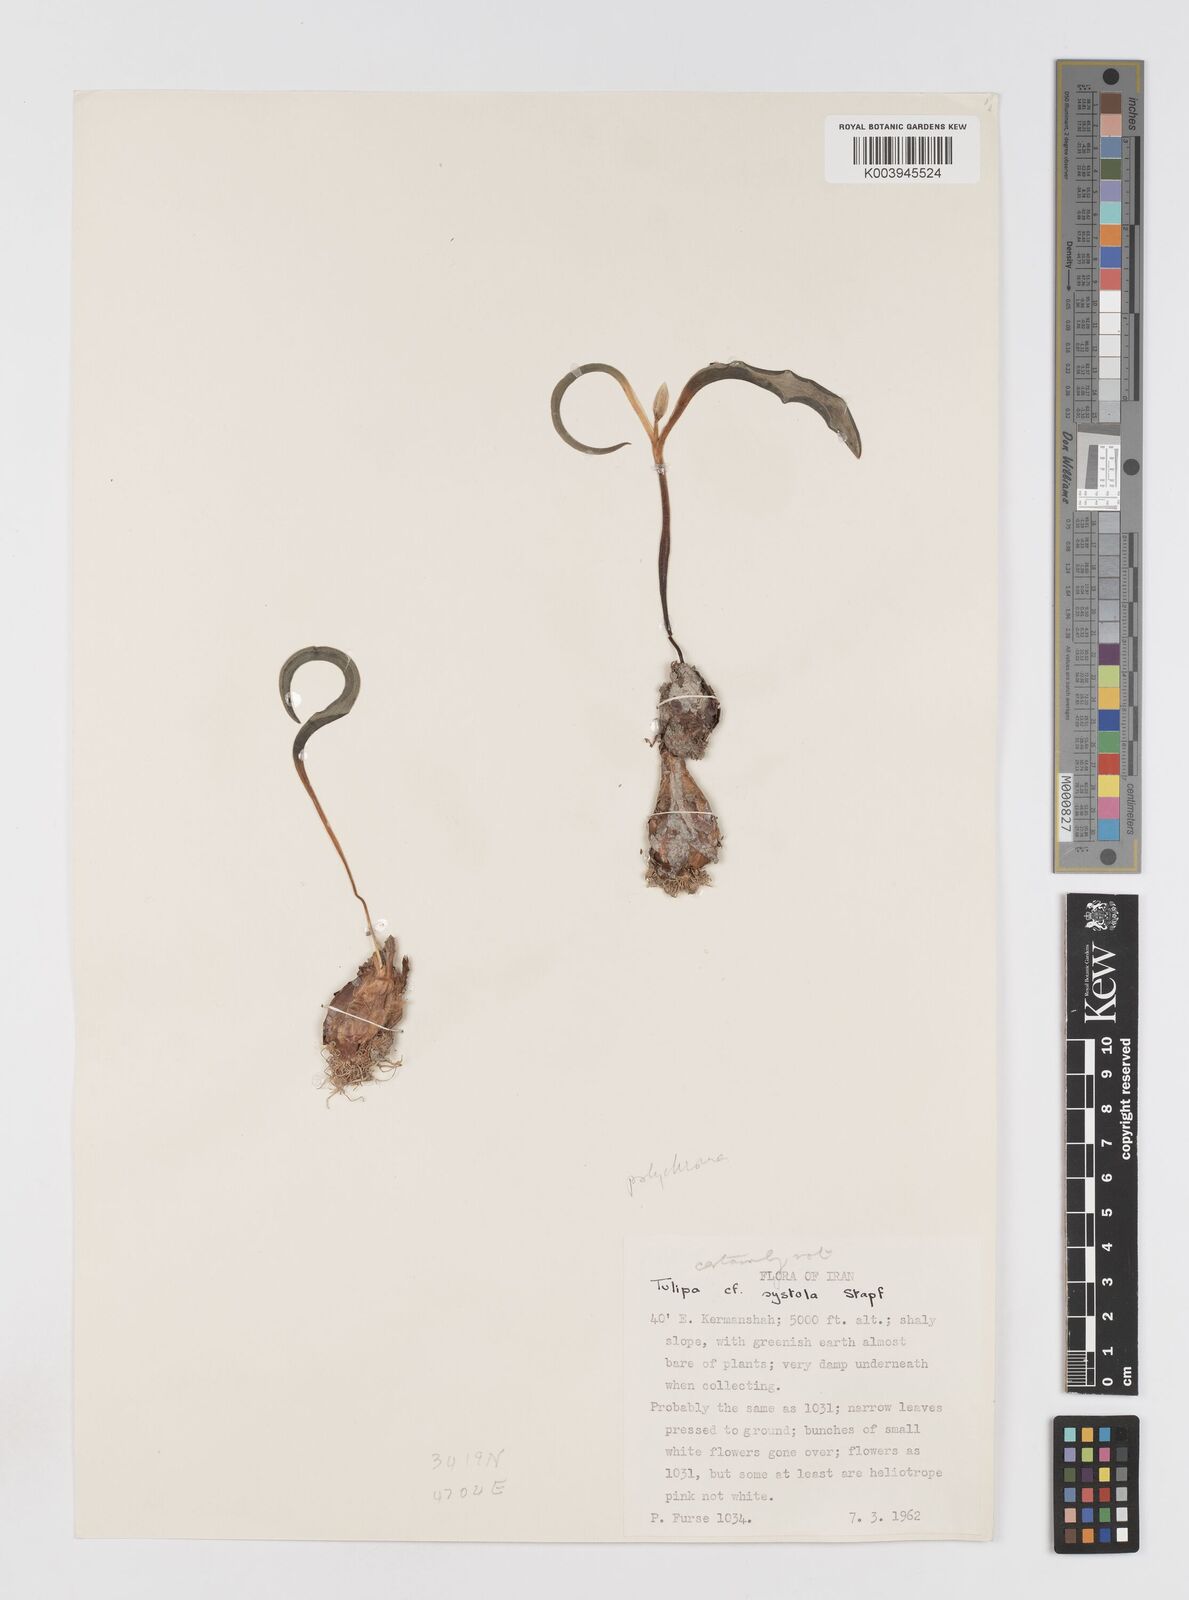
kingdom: Plantae
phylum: Tracheophyta
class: Liliopsida
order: Liliales
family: Liliaceae
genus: Tulipa
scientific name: Tulipa biflora
